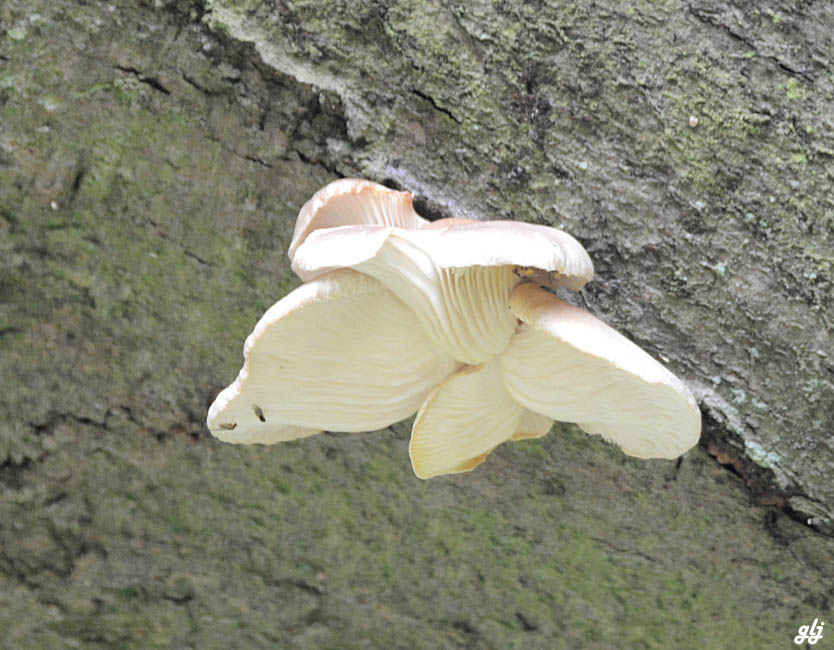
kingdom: Fungi
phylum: Basidiomycota
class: Agaricomycetes
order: Agaricales
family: Pleurotaceae
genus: Pleurotus
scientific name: Pleurotus
